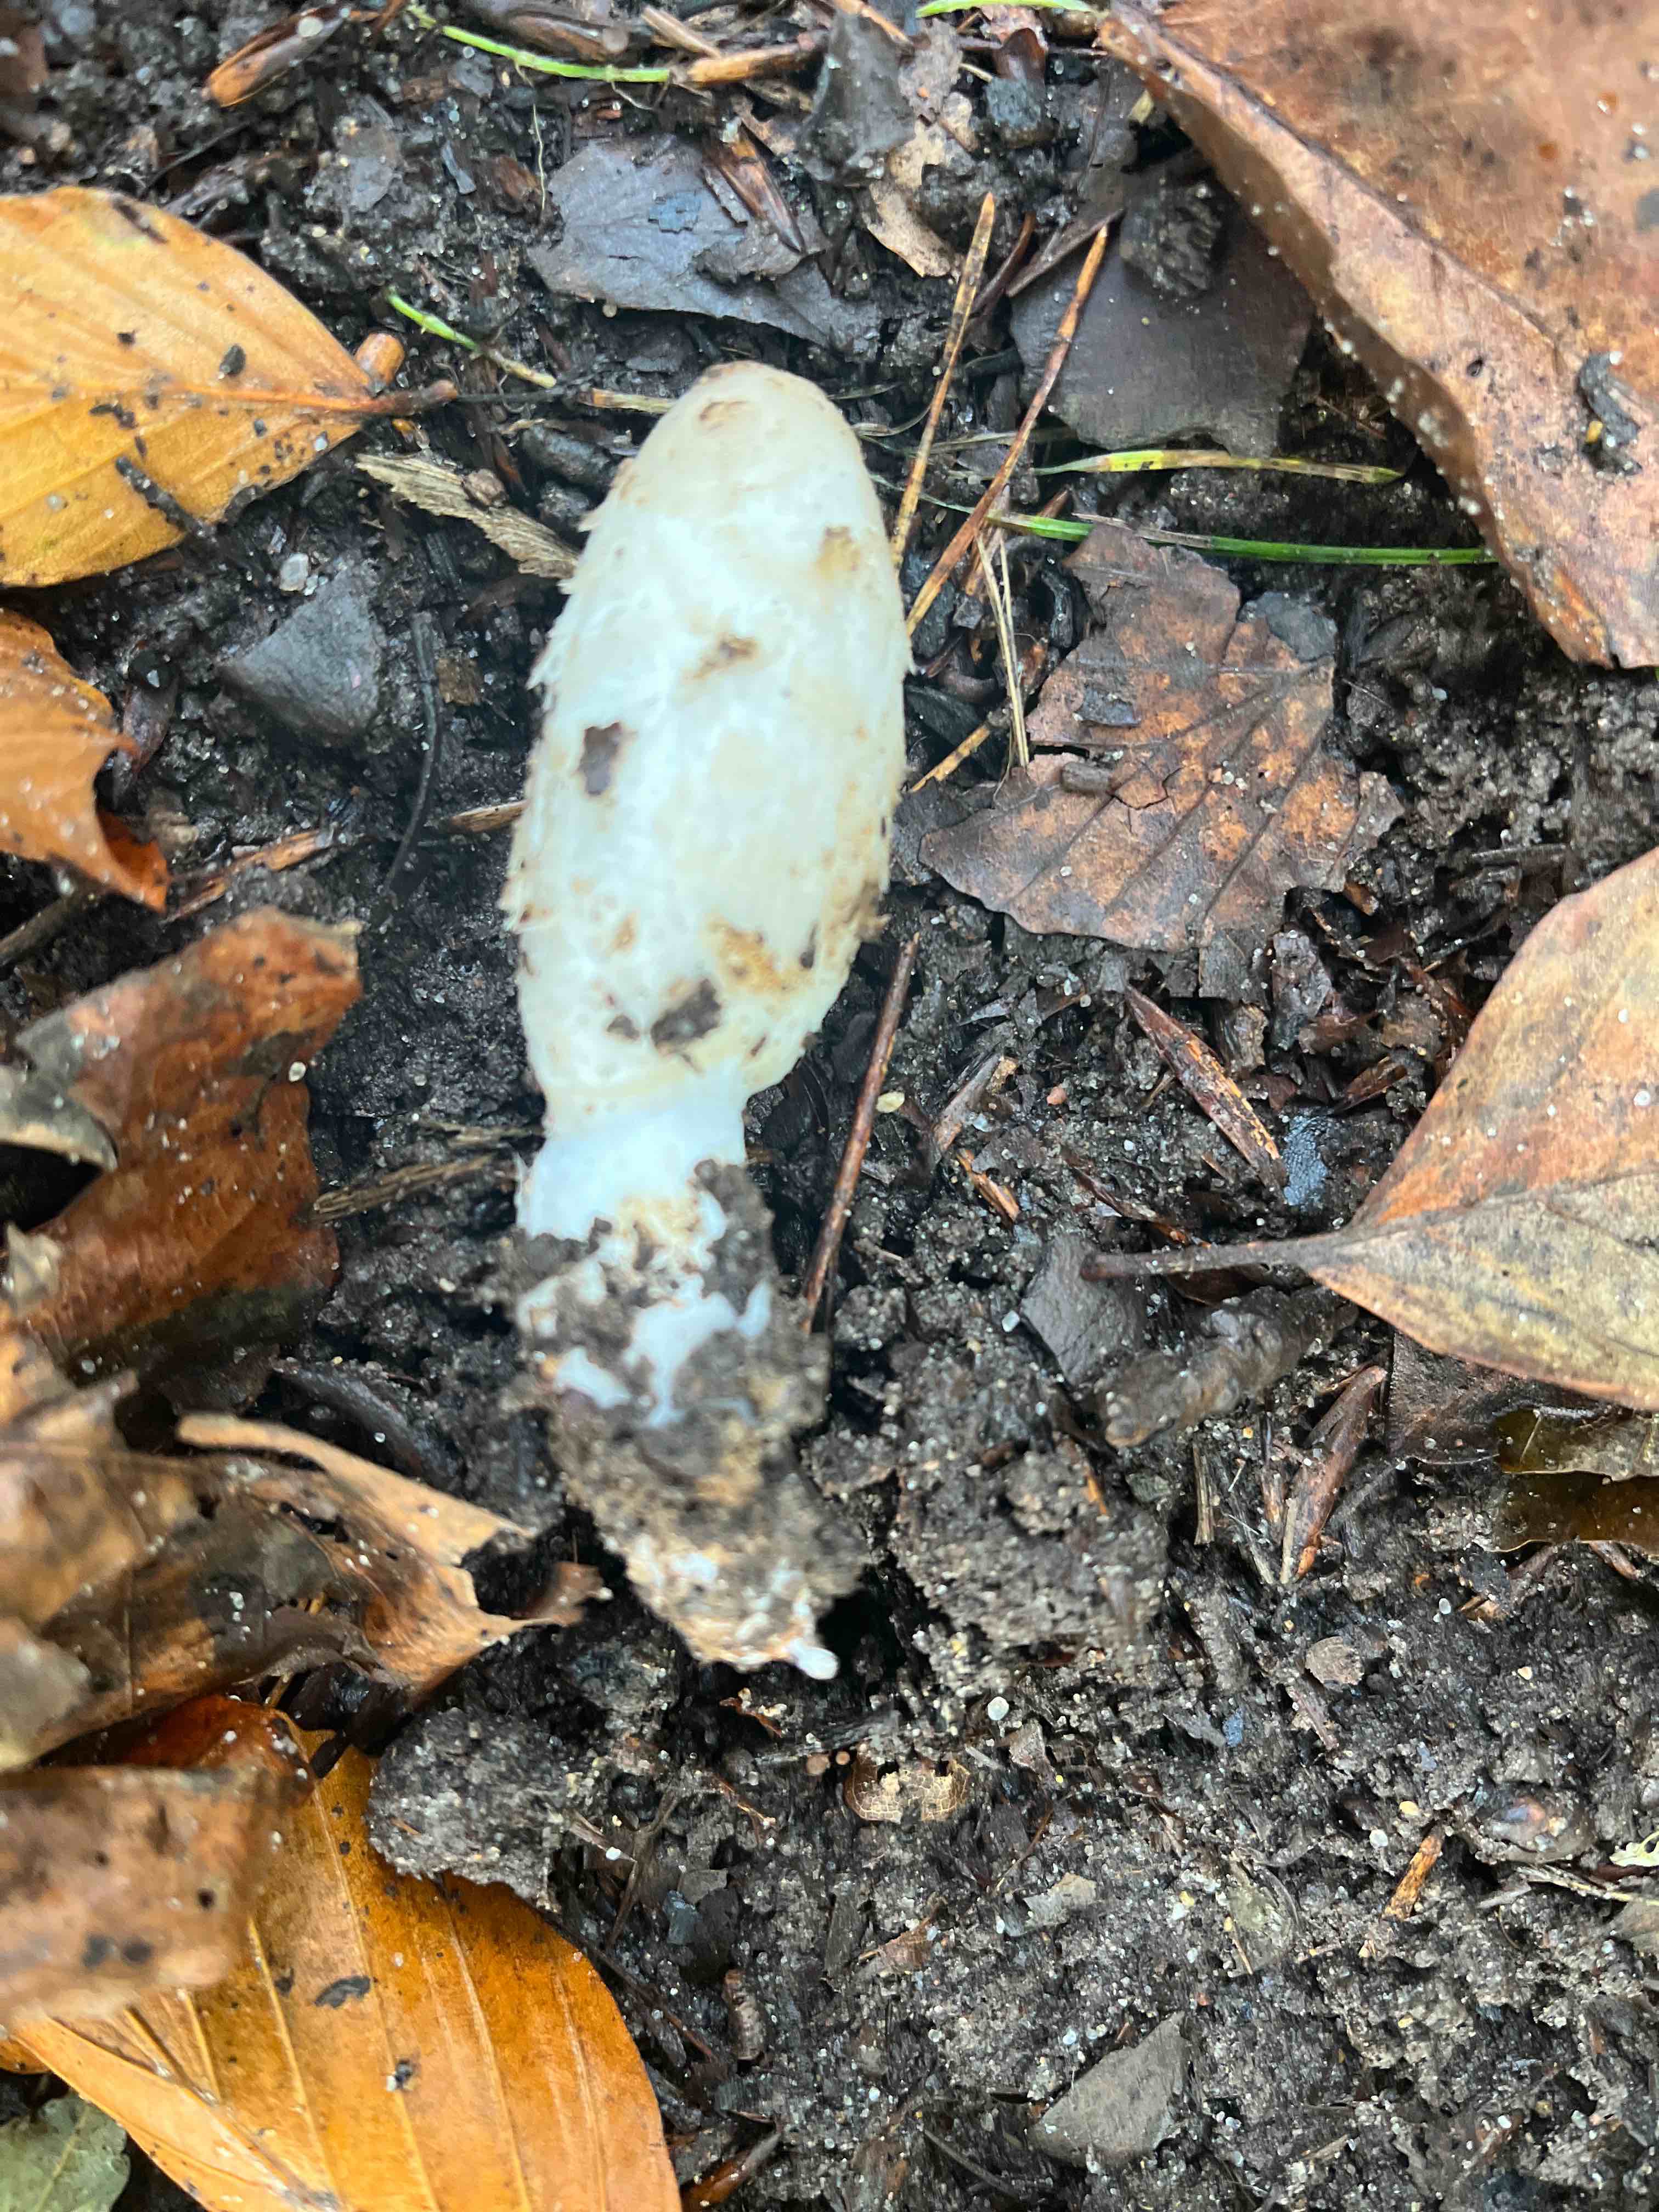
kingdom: Fungi
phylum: Basidiomycota
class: Agaricomycetes
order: Agaricales
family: Agaricaceae
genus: Coprinus
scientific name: Coprinus comatus
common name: stor parykhat
